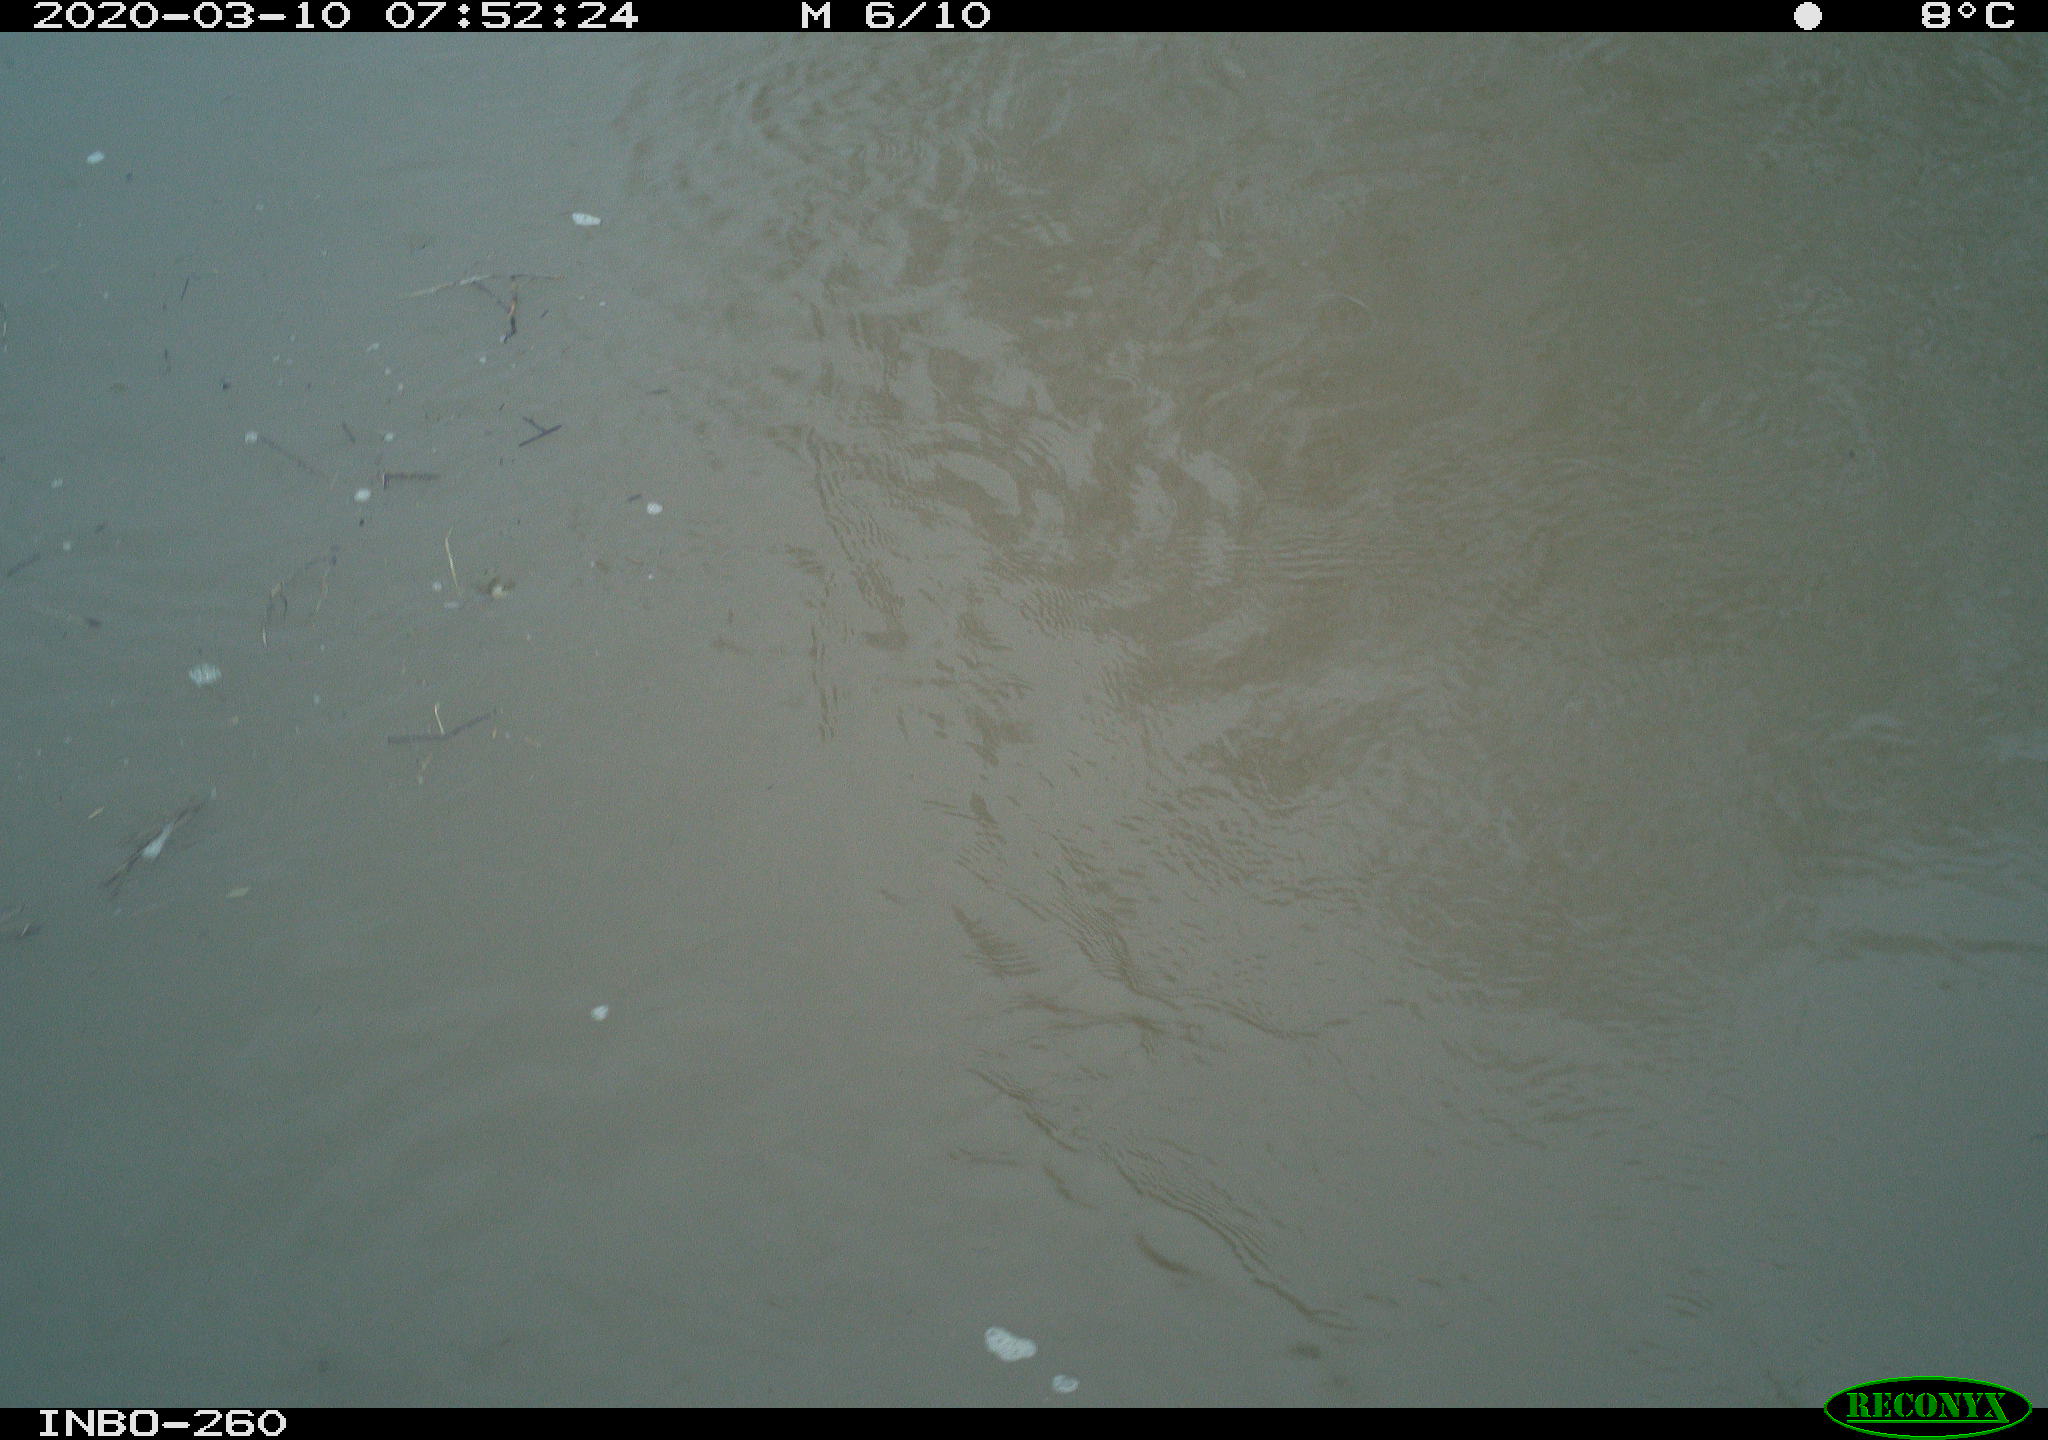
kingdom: Animalia
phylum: Chordata
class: Aves
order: Anseriformes
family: Anatidae
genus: Anas
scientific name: Anas platyrhynchos
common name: Mallard
